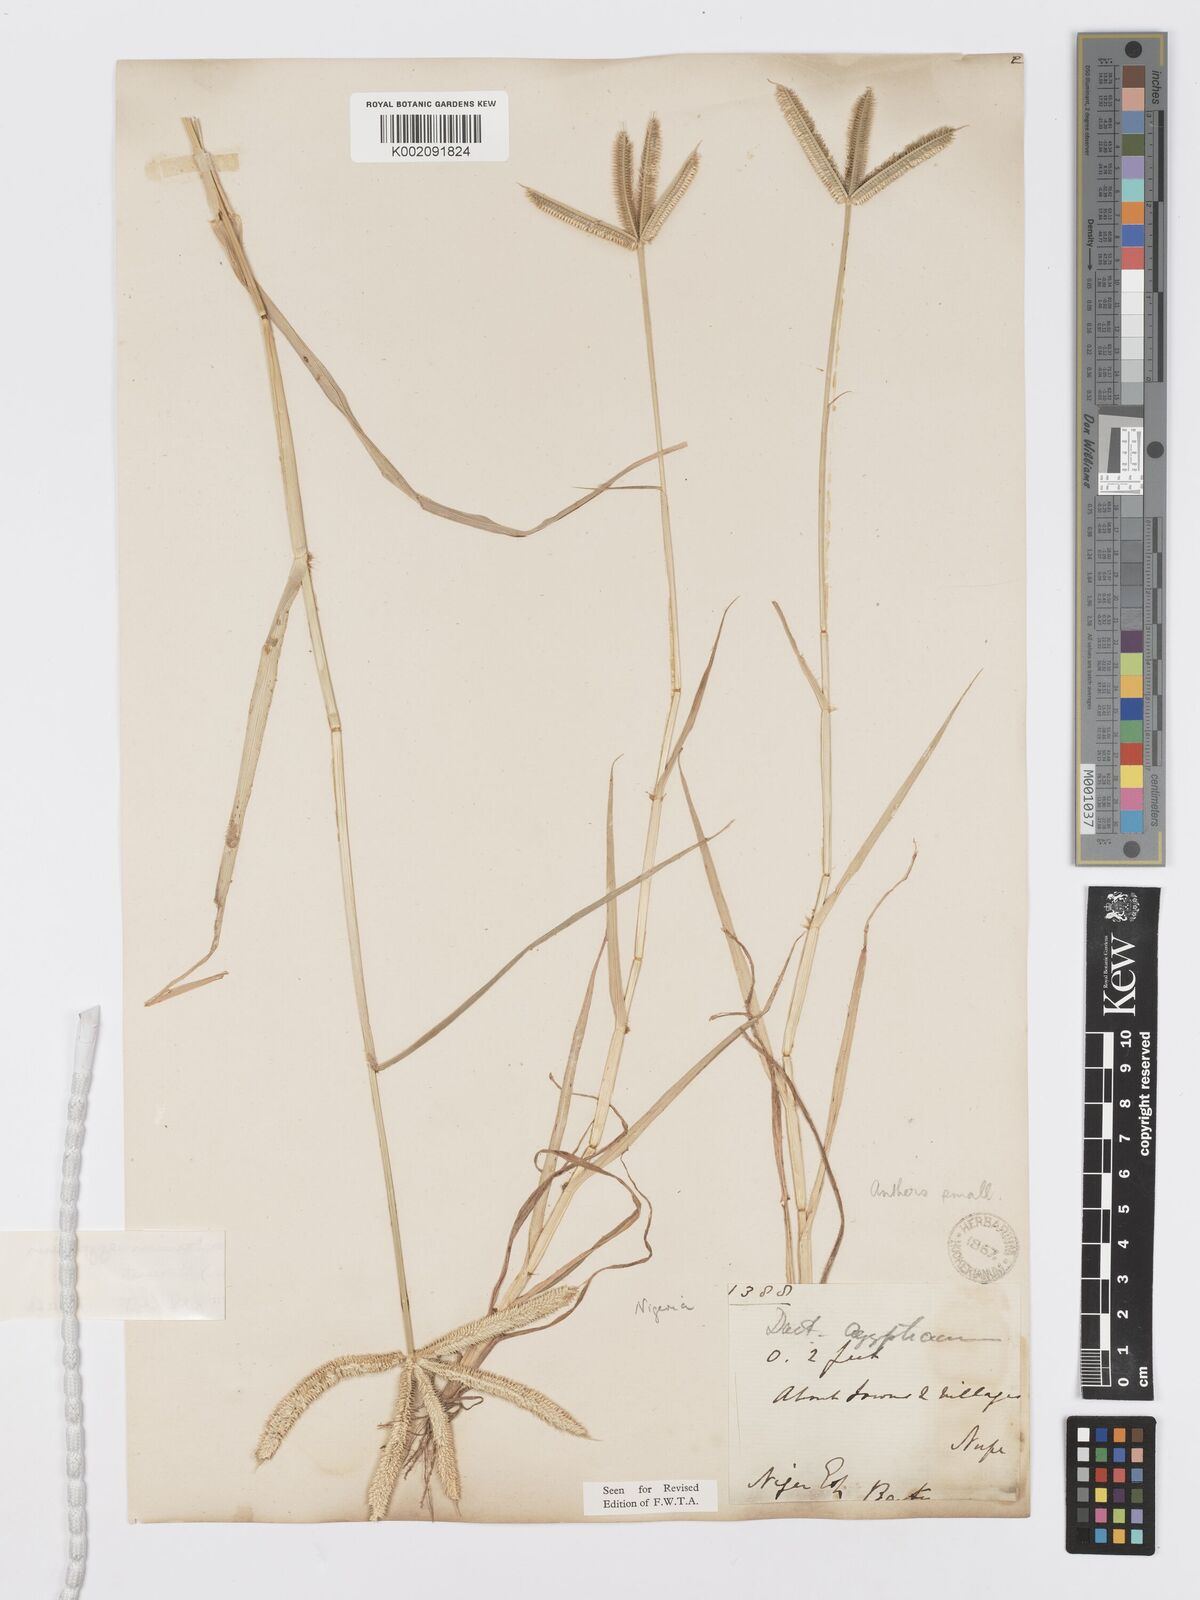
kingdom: Plantae
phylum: Tracheophyta
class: Liliopsida
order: Poales
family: Poaceae
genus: Dactyloctenium
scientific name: Dactyloctenium aegyptium
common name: Egyptian grass
